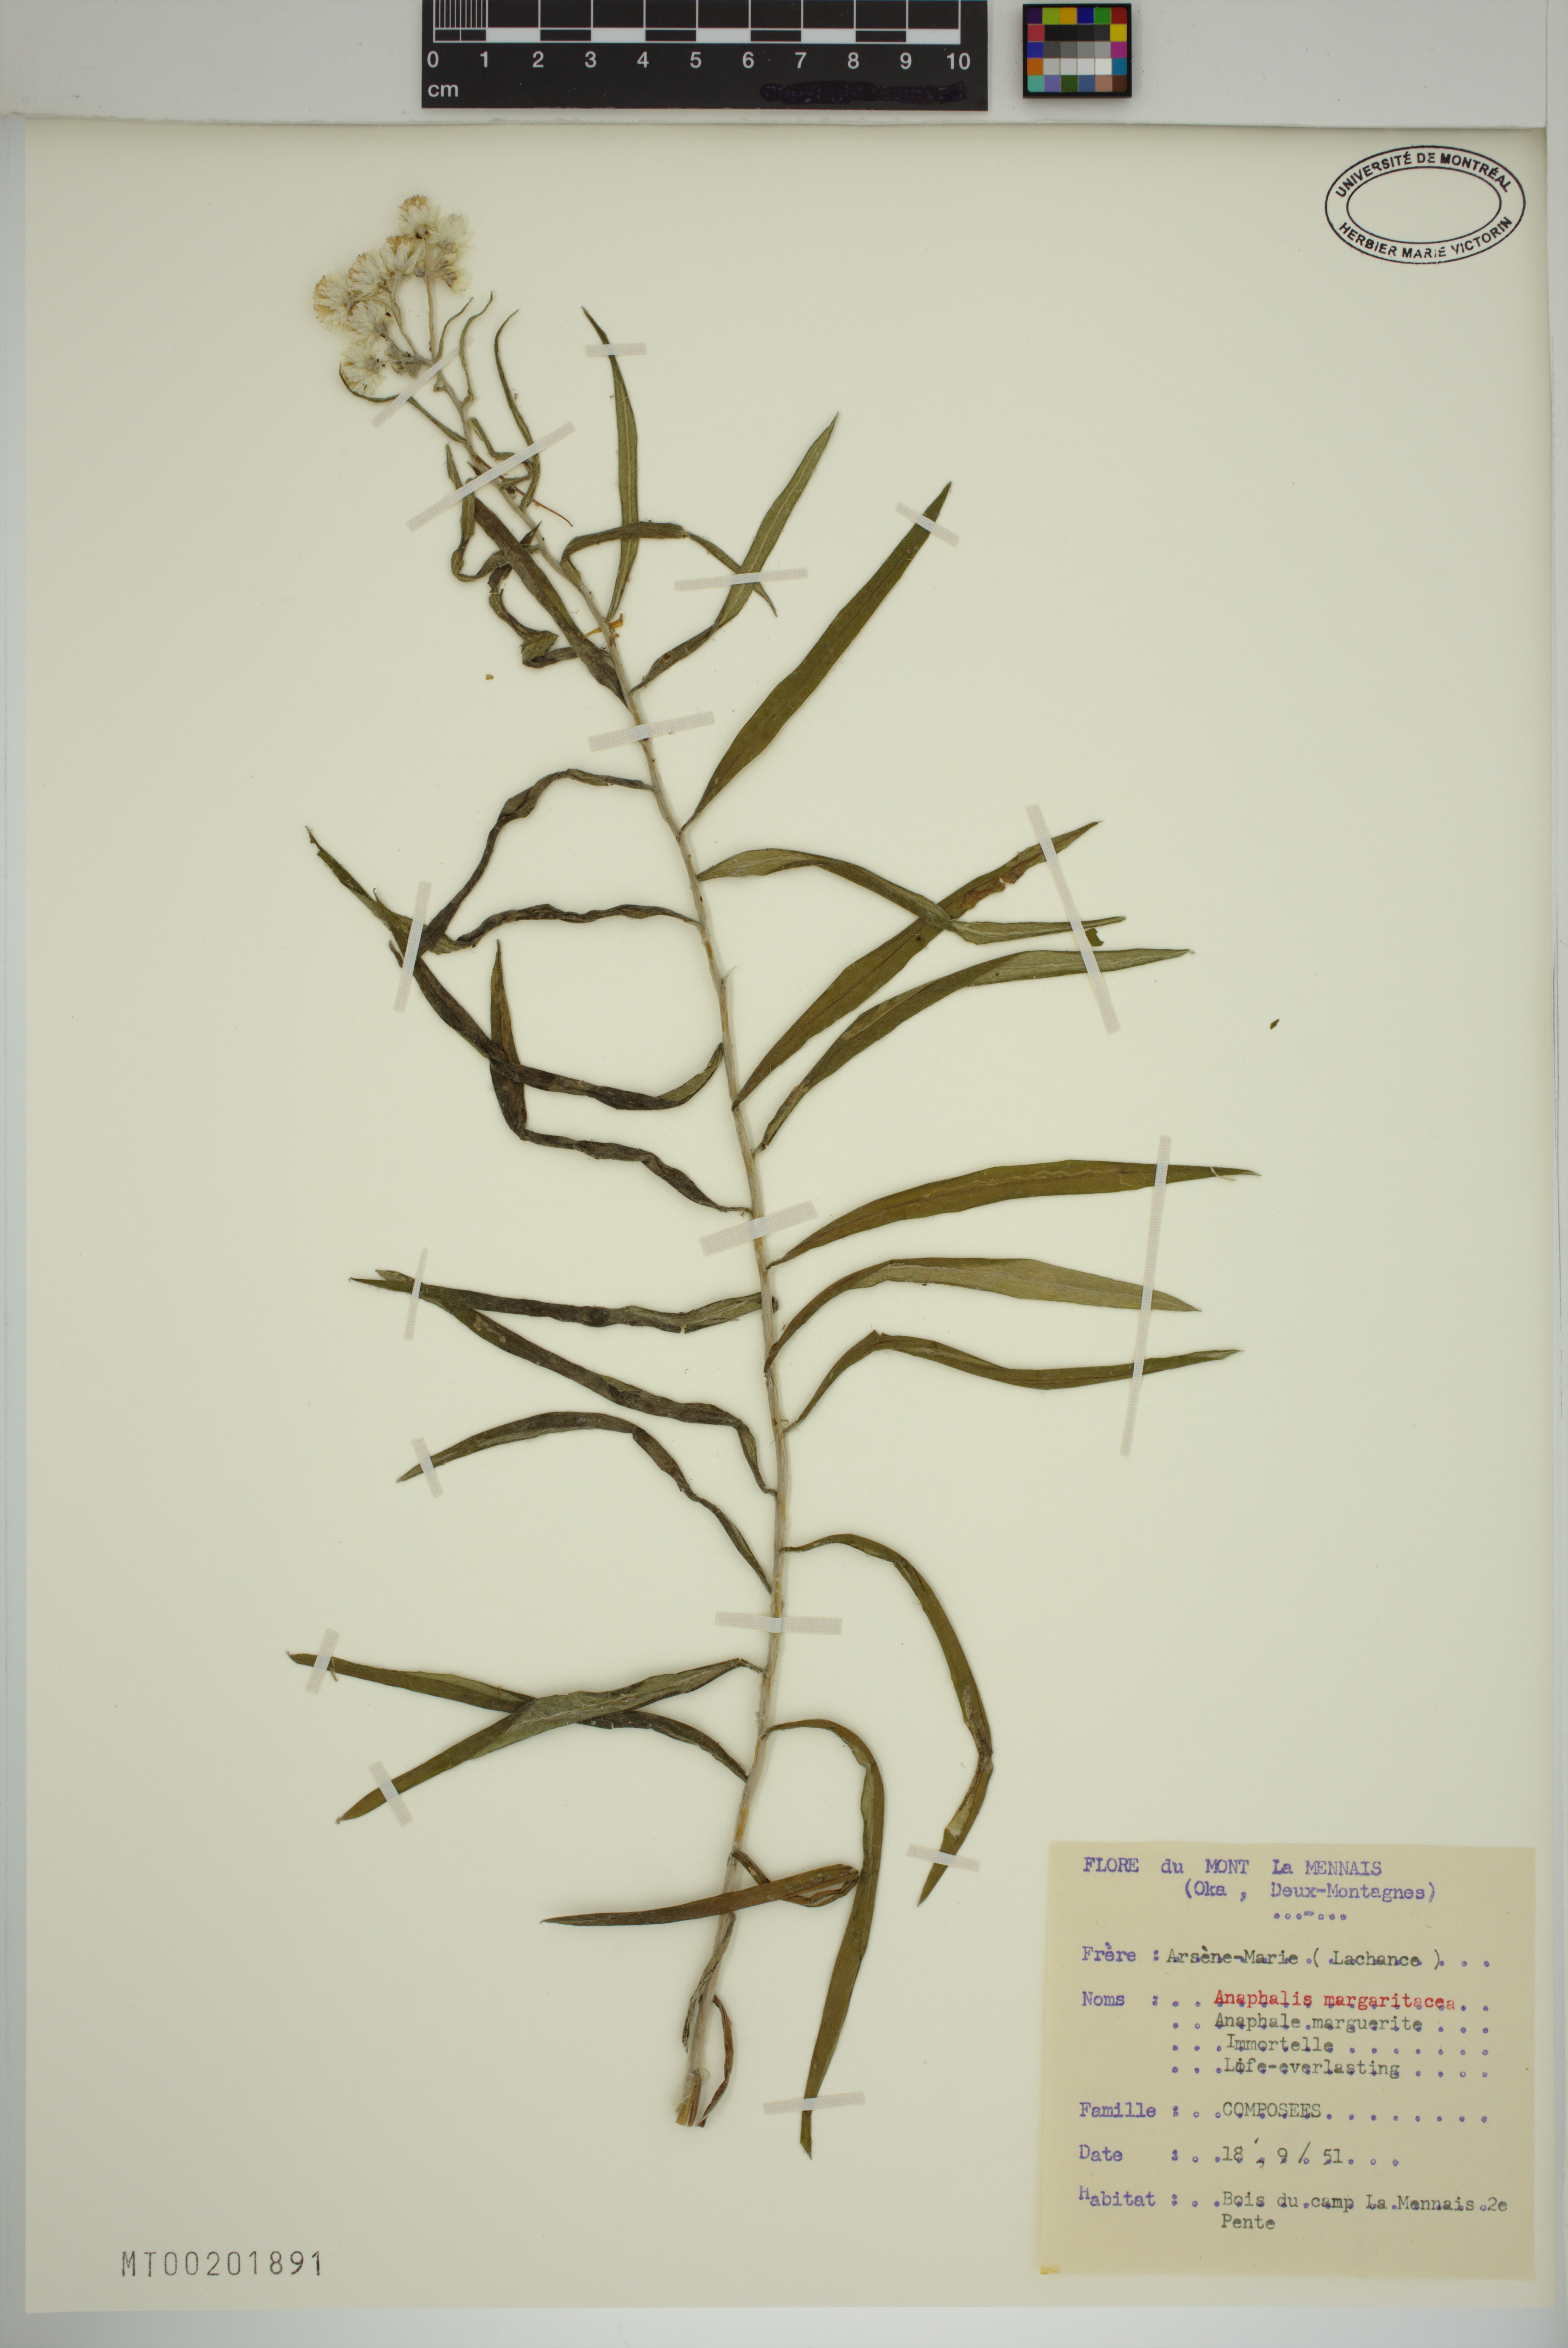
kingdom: Plantae
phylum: Tracheophyta
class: Magnoliopsida
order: Asterales
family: Asteraceae
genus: Anaphalis
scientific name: Anaphalis margaritacea
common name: Pearly everlasting
